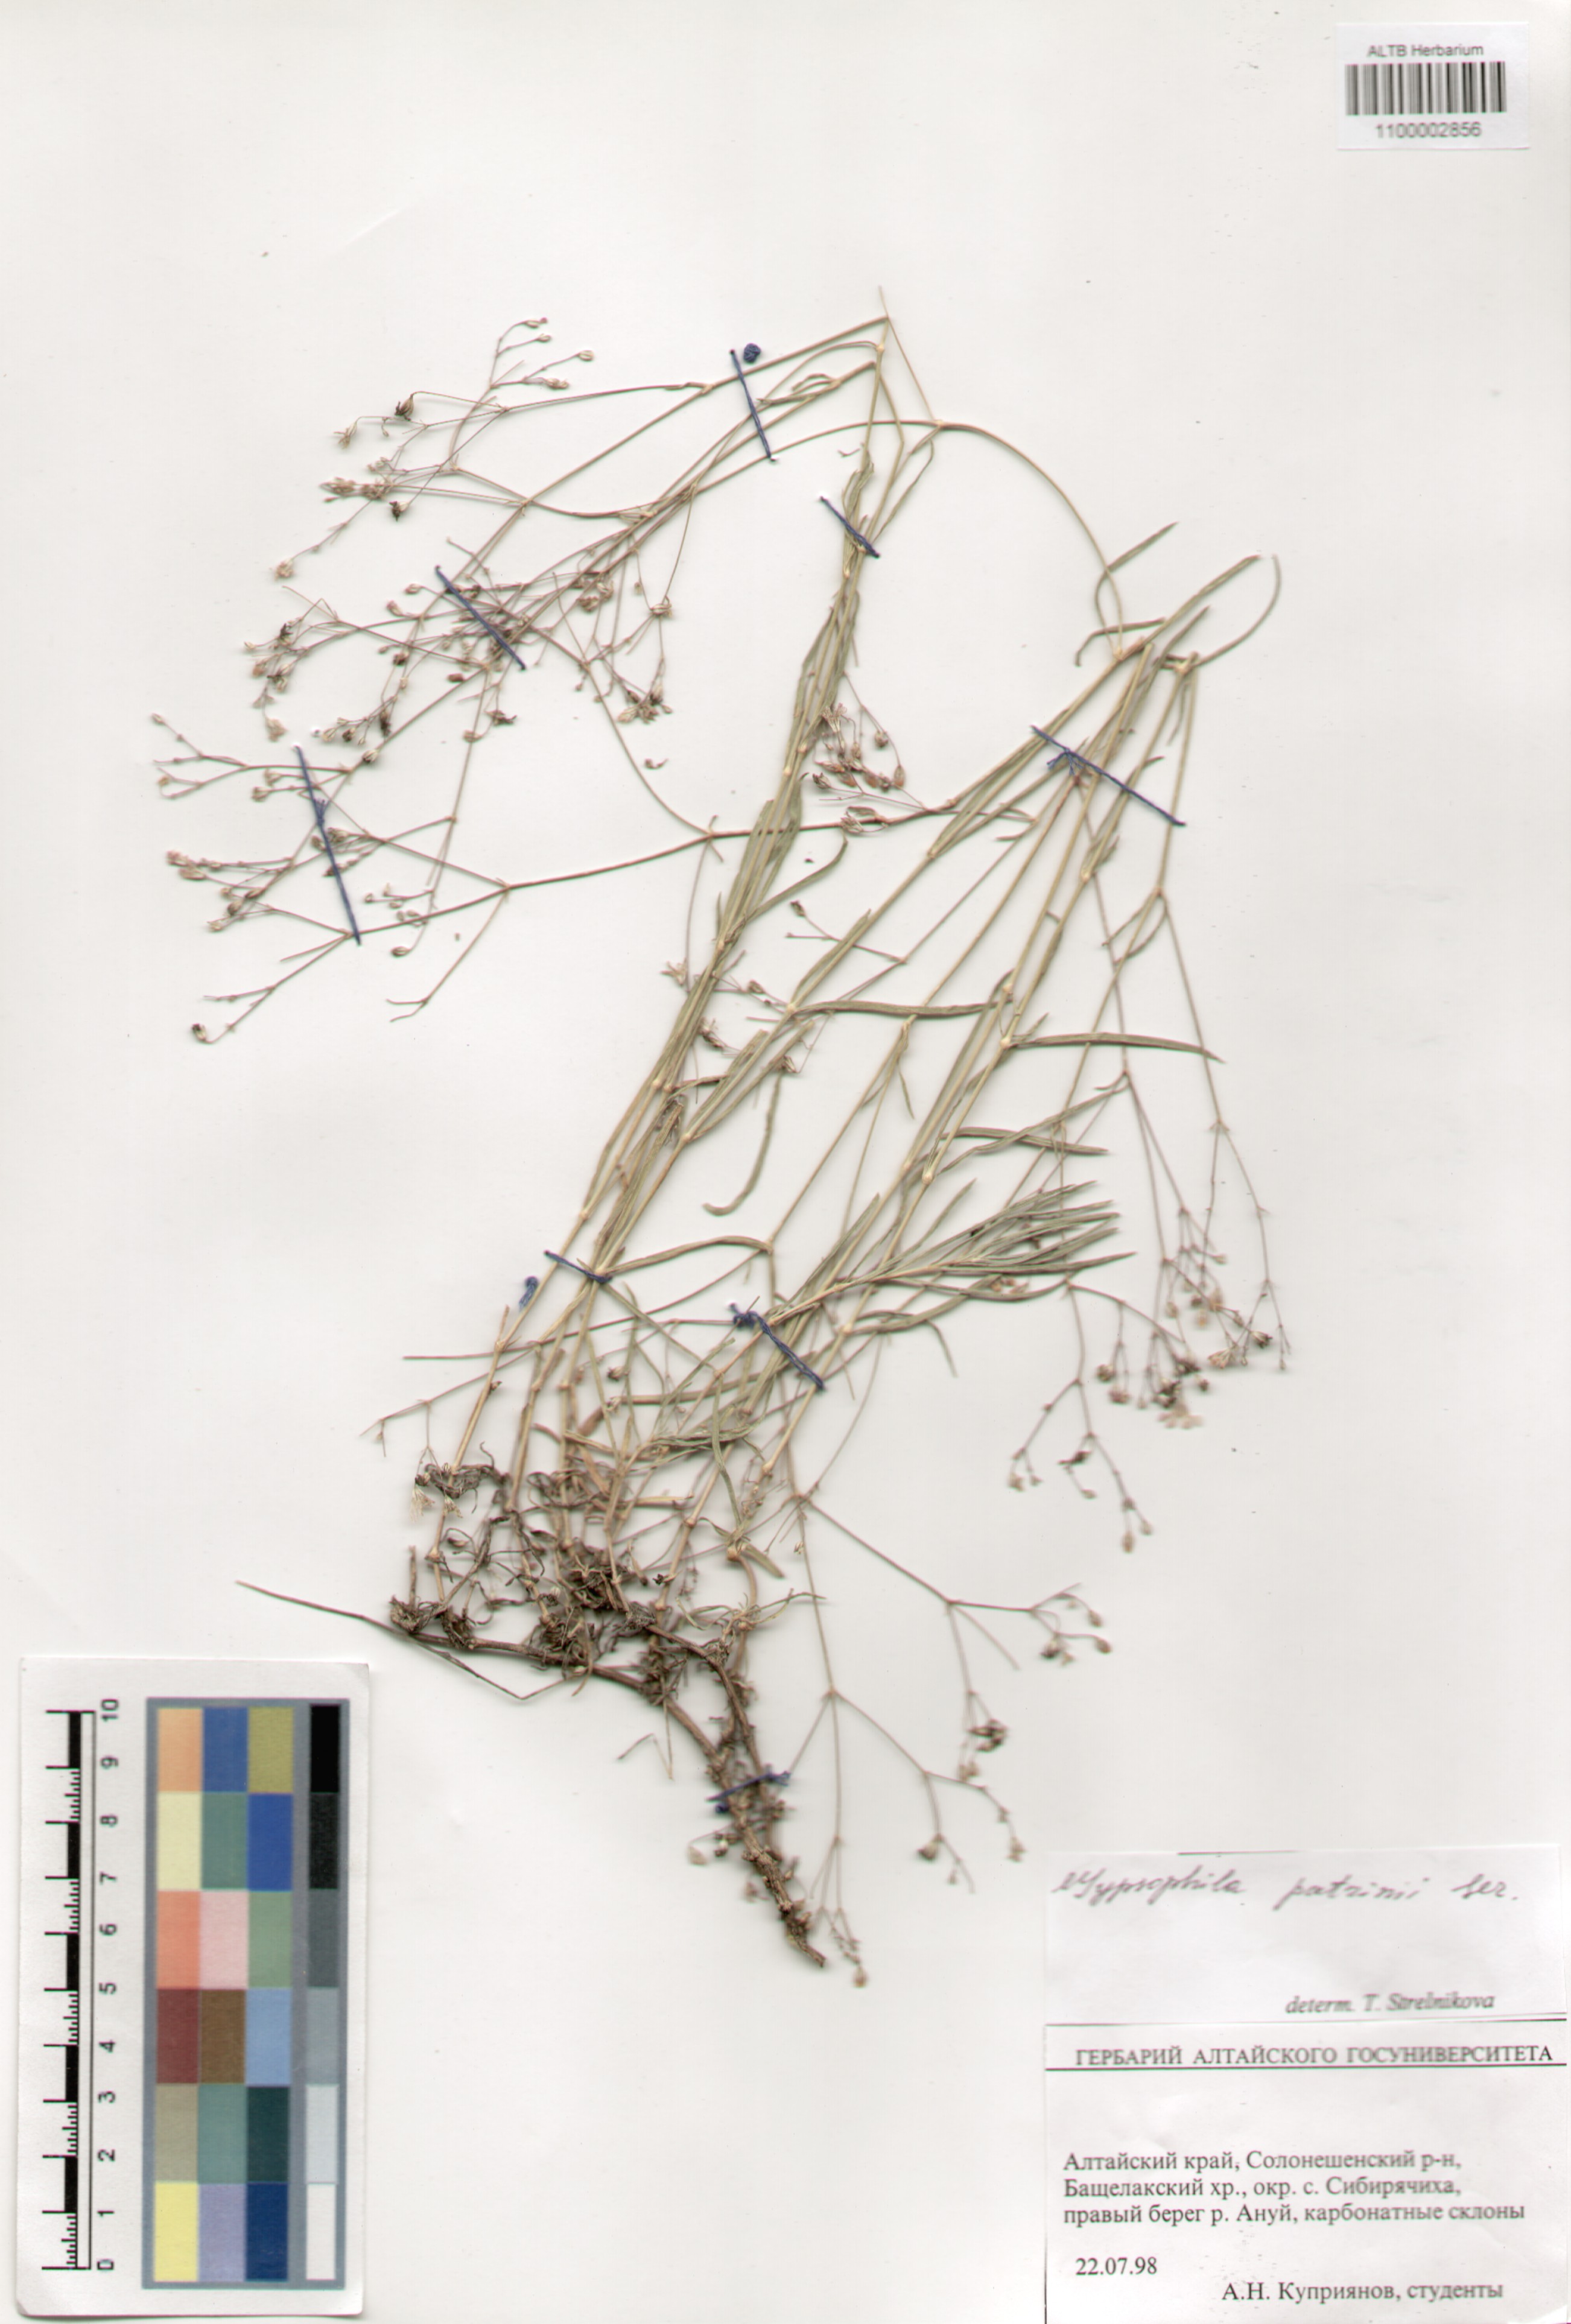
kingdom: Plantae
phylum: Tracheophyta
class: Magnoliopsida
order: Caryophyllales
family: Caryophyllaceae
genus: Gypsophila
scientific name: Gypsophila patrinii
